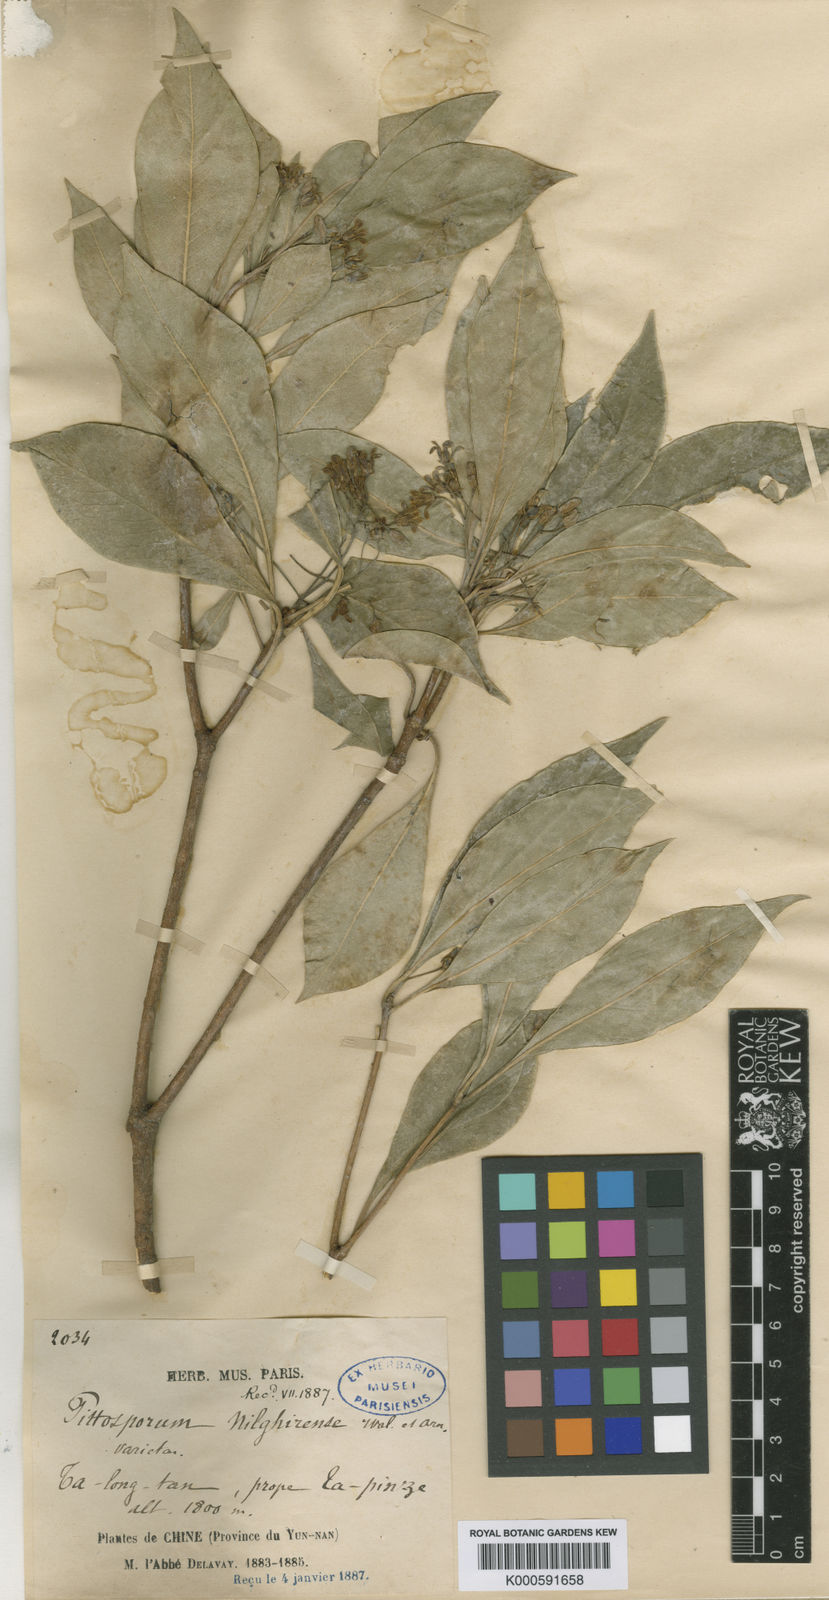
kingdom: Plantae
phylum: Tracheophyta
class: Magnoliopsida
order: Apiales
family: Pittosporaceae
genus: Pittosporum
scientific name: Pittosporum brevicalyx
